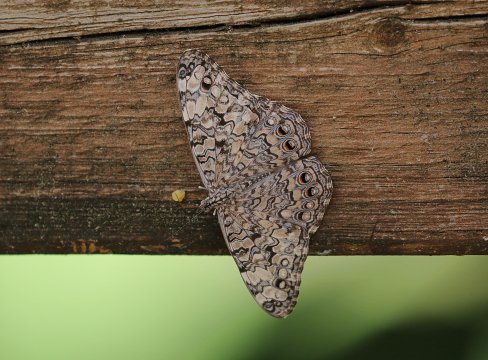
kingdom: Animalia
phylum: Arthropoda
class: Insecta
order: Lepidoptera
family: Nymphalidae
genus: Hamadryas
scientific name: Hamadryas februa
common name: Gray Cracker
